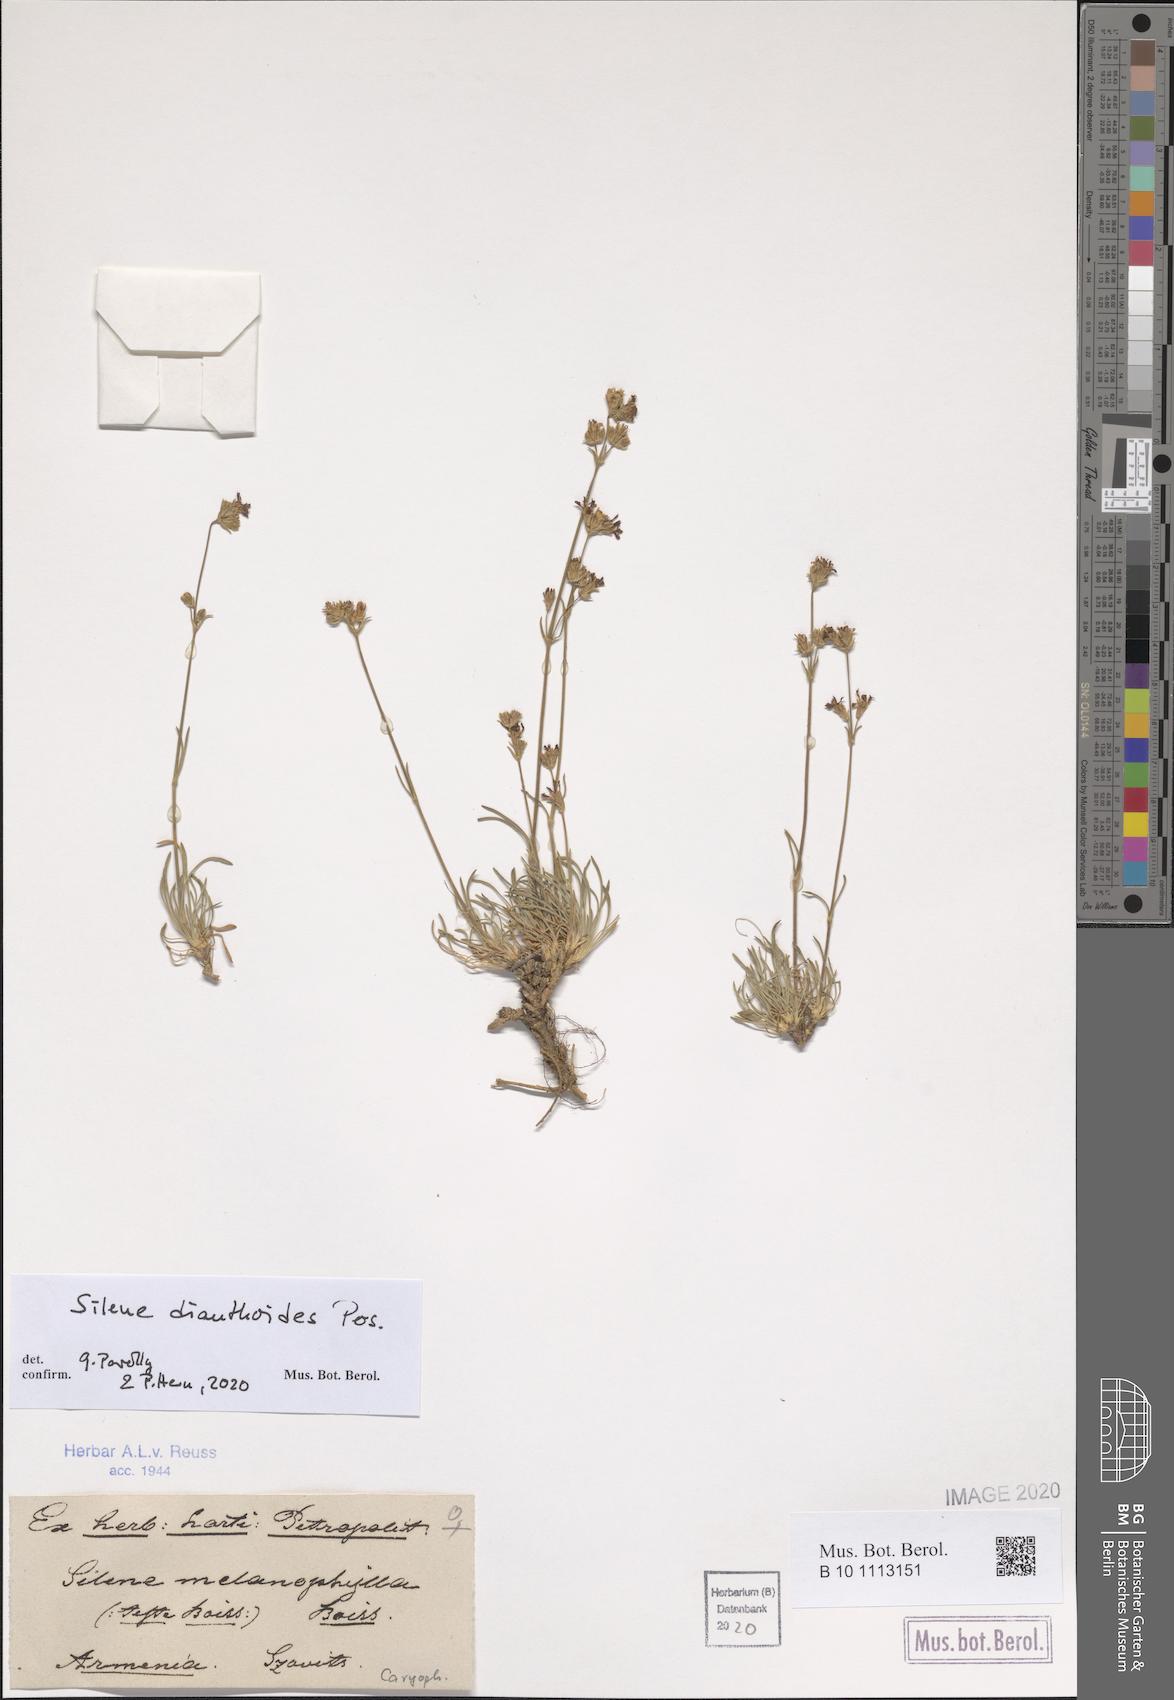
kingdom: Plantae
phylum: Tracheophyta
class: Magnoliopsida
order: Caryophyllales
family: Caryophyllaceae
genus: Silene
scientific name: Silene dianthoides
